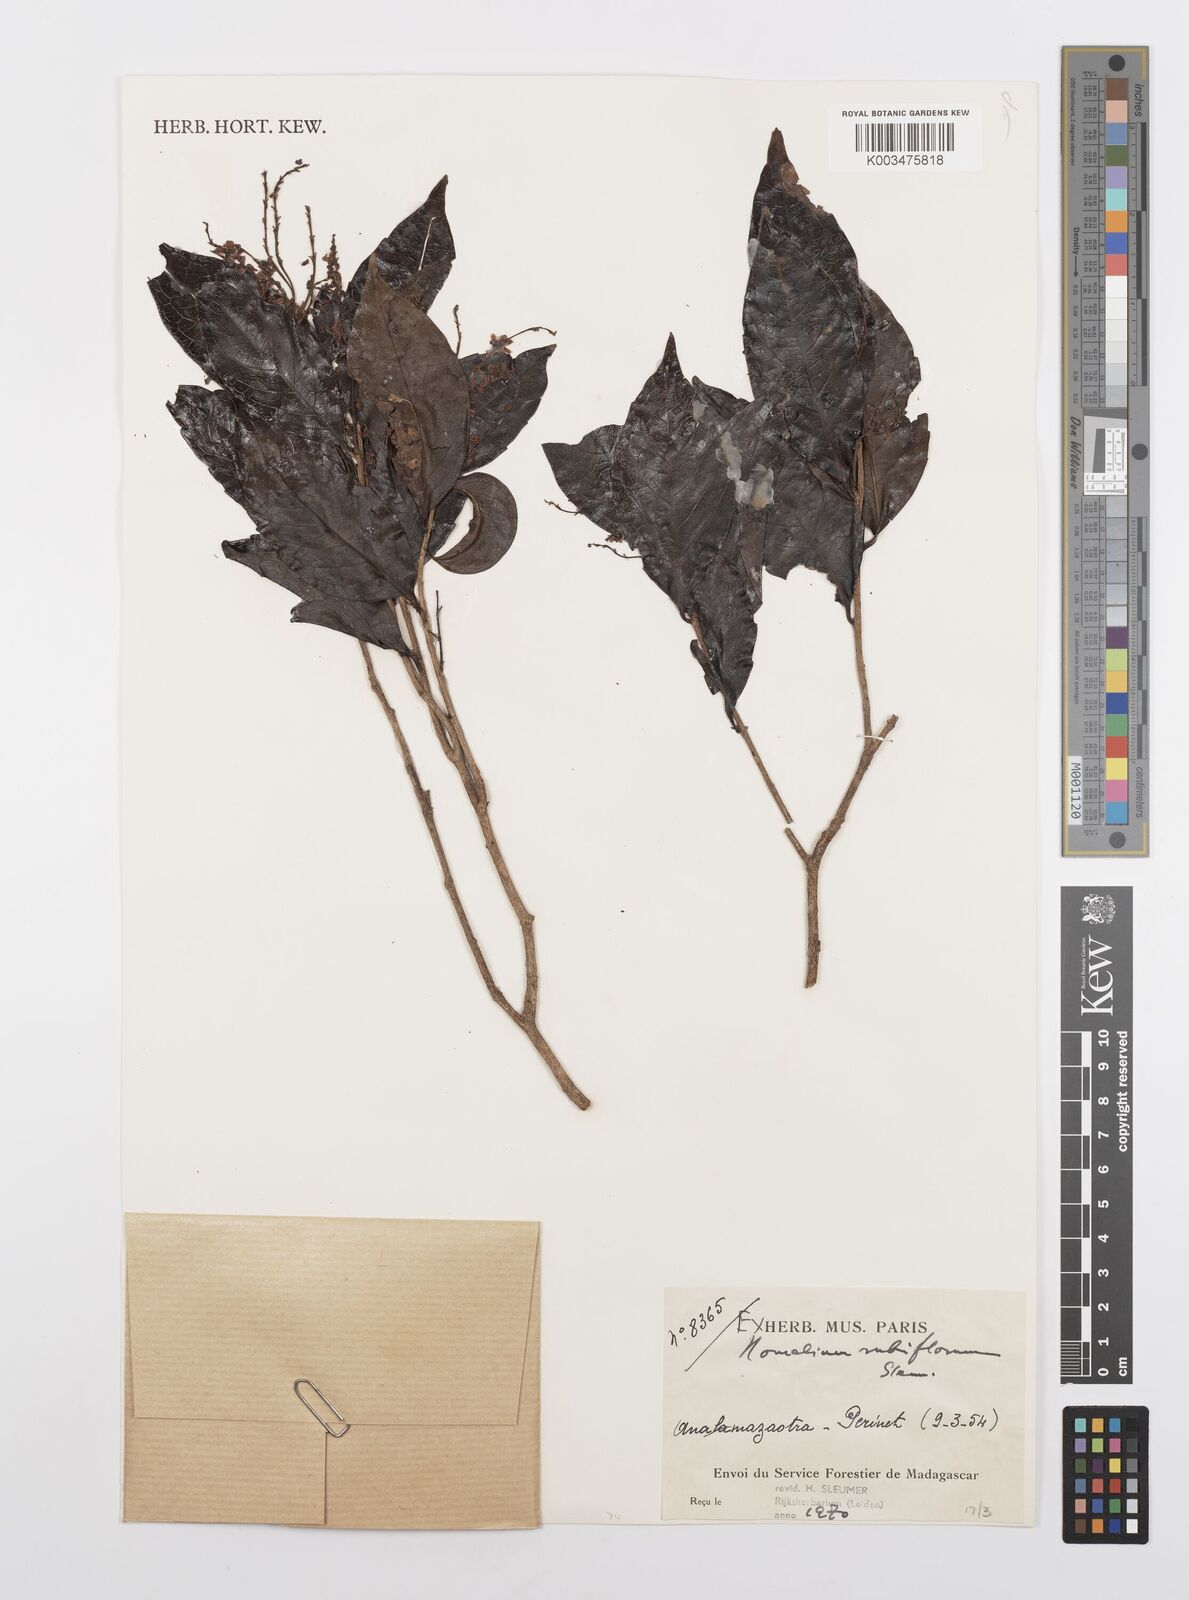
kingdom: Plantae
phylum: Tracheophyta
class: Magnoliopsida
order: Malpighiales
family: Salicaceae
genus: Homalium
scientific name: Homalium rubriflorum
